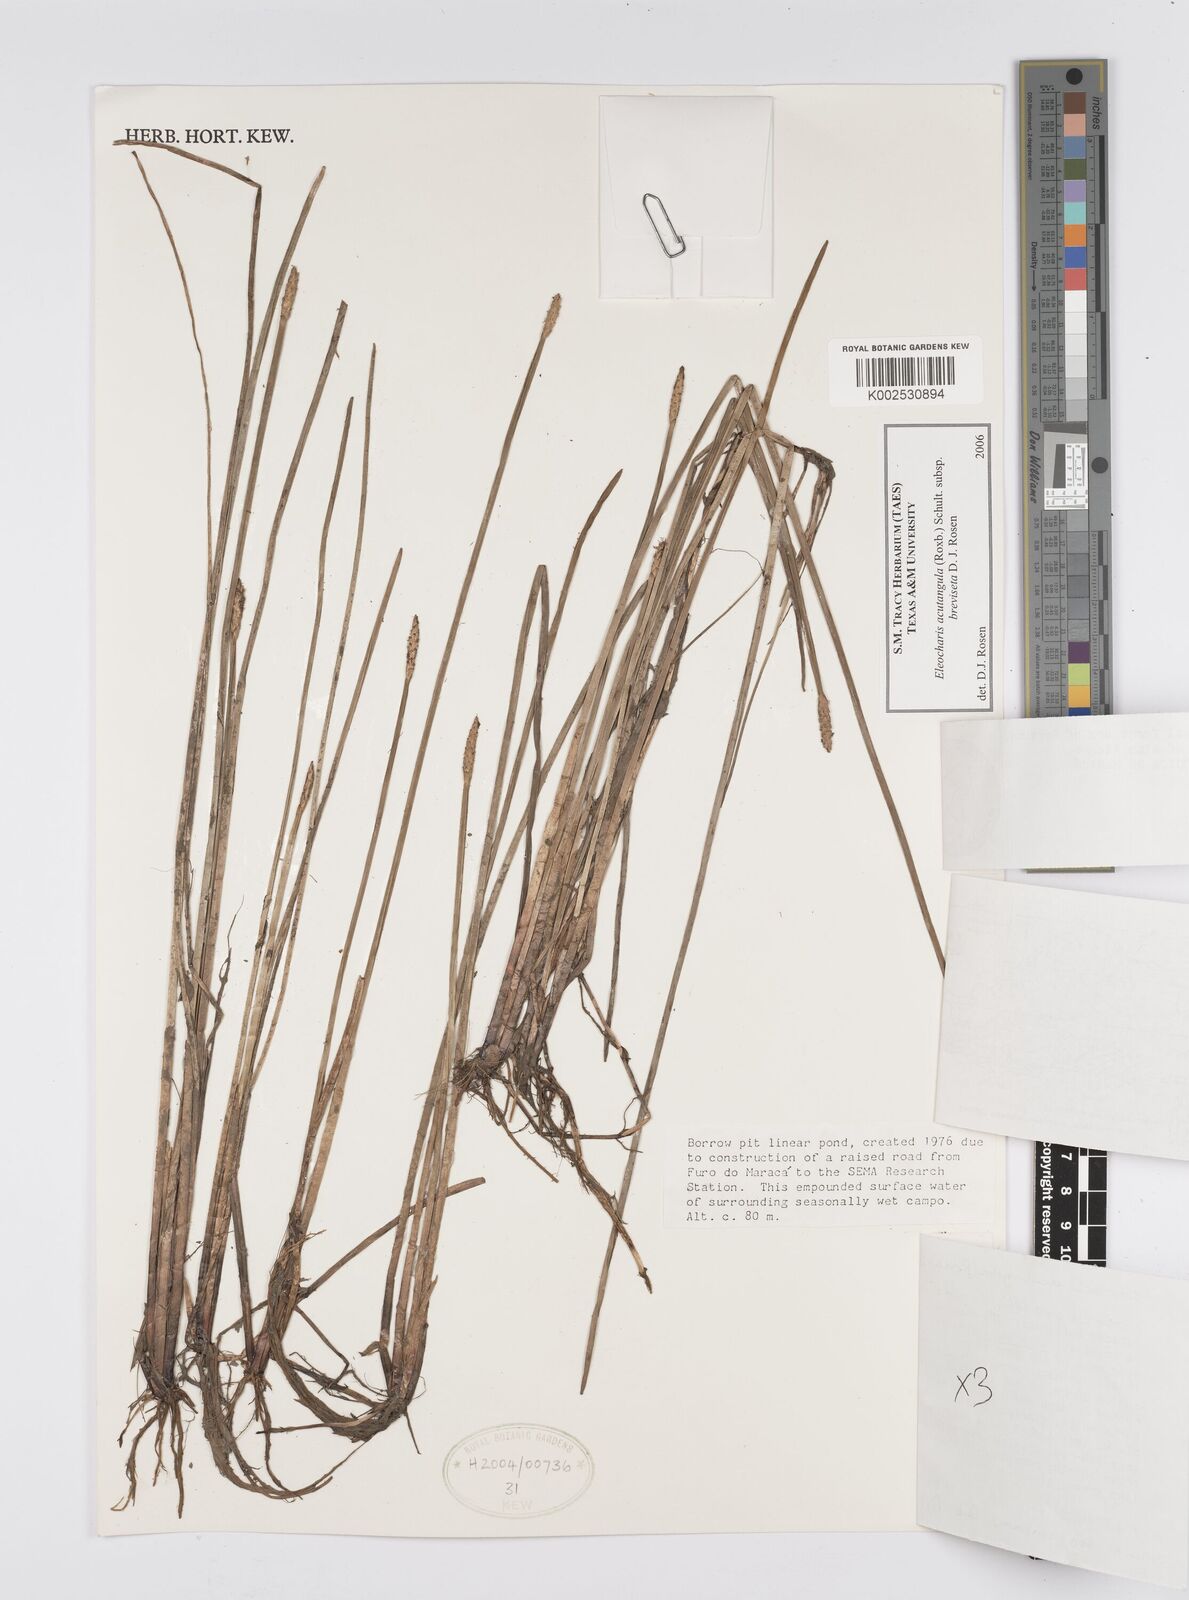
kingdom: Plantae
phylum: Tracheophyta
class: Liliopsida
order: Poales
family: Cyperaceae
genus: Eleocharis
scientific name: Eleocharis acutangula
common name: Acute spikerush
